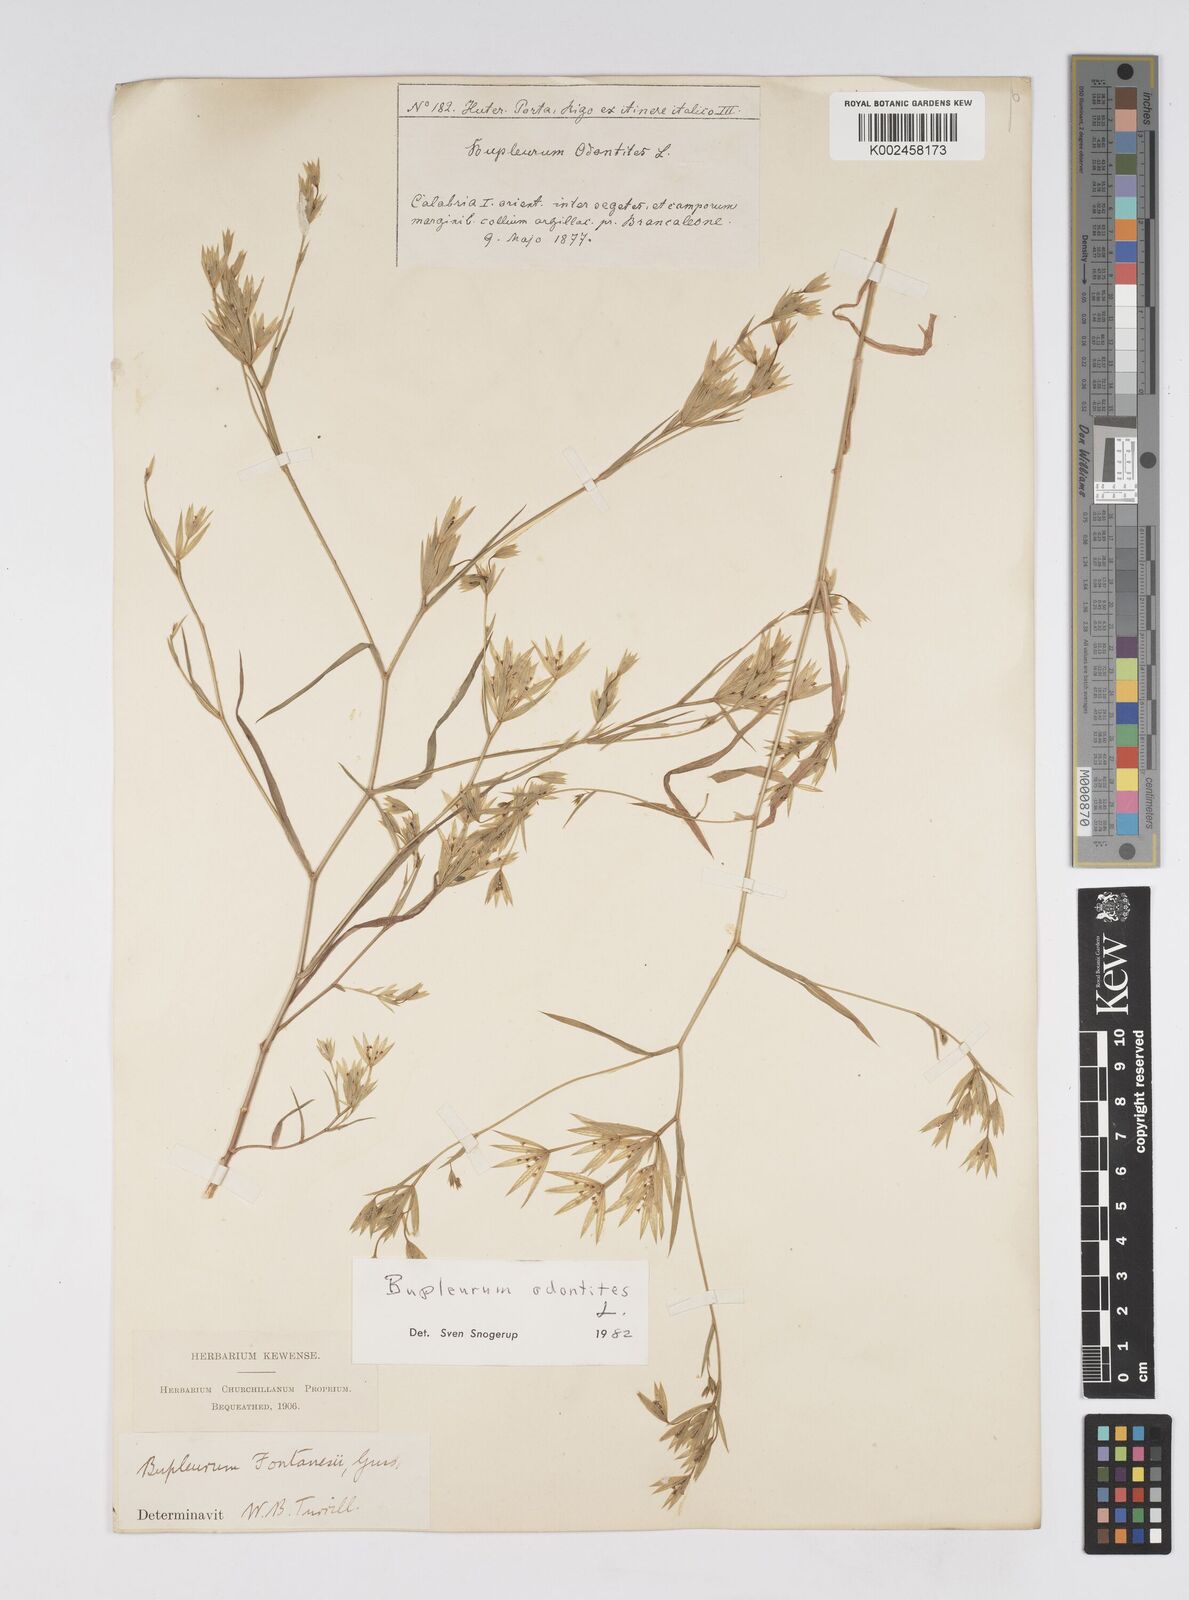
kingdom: Plantae
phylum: Tracheophyta
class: Magnoliopsida
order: Apiales
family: Apiaceae
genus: Bupleurum
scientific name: Bupleurum odontites
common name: Narrowleaf thorow wax
